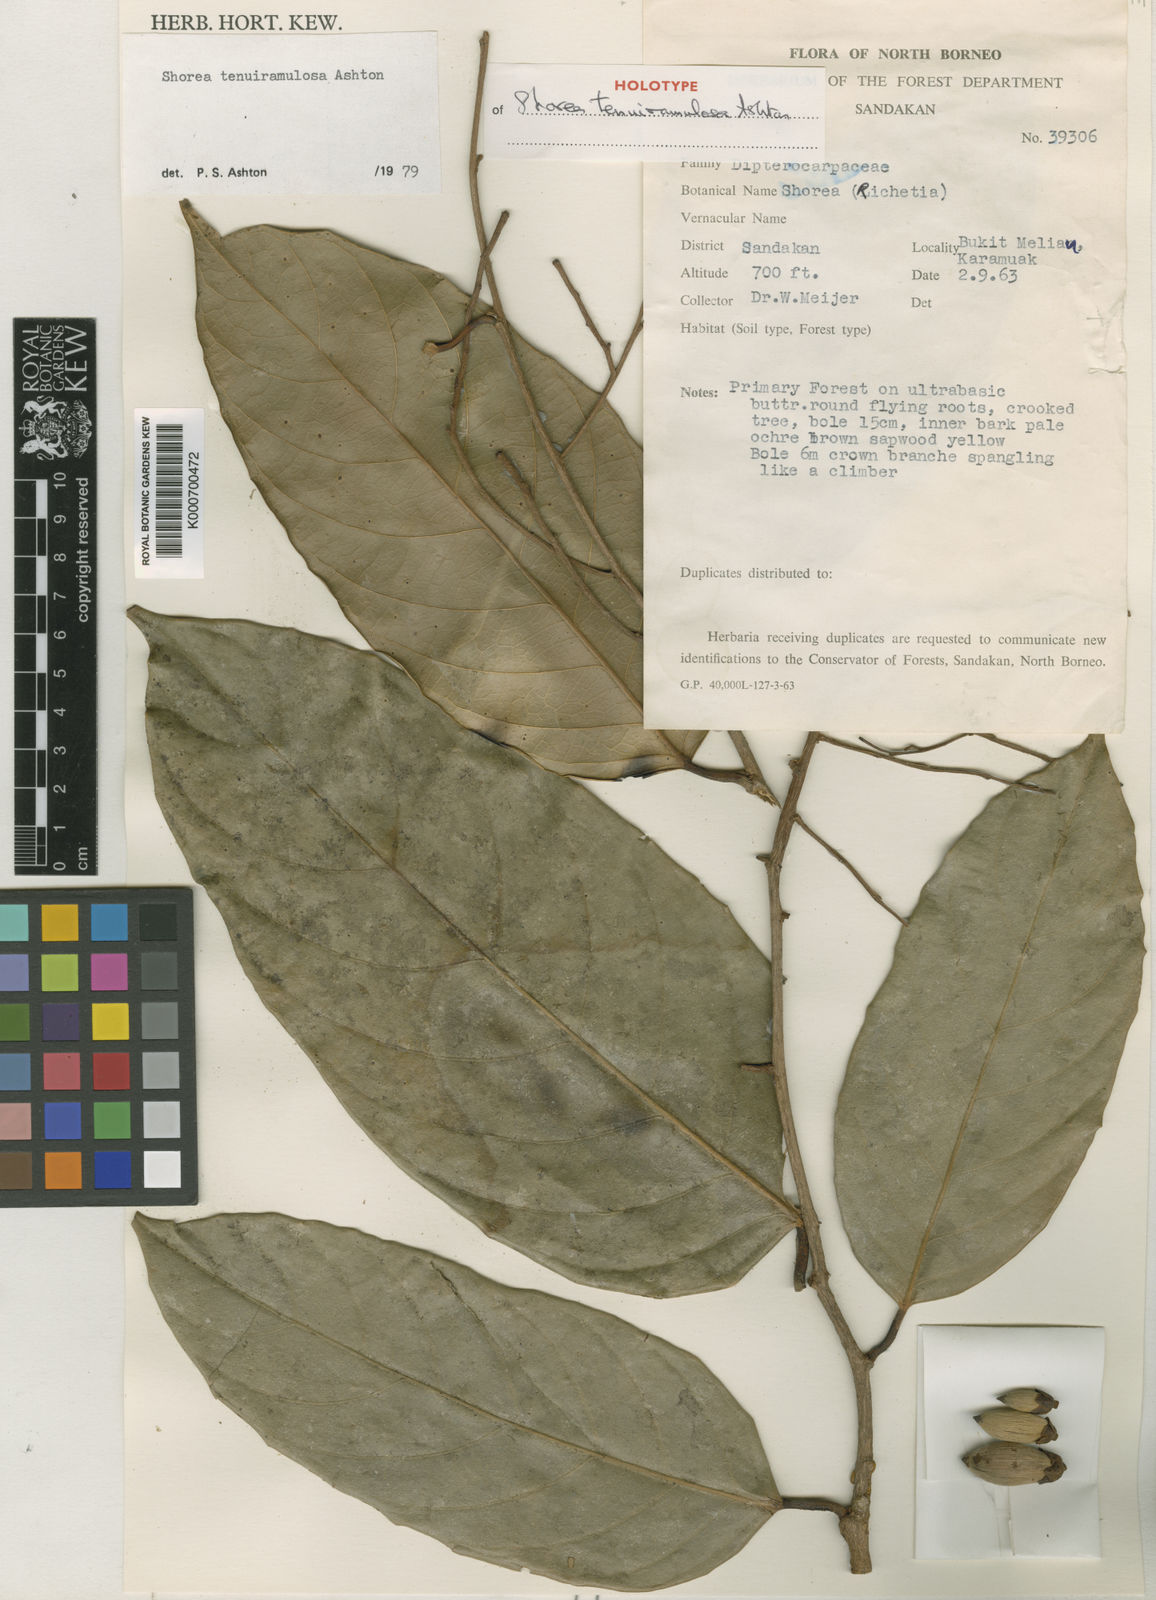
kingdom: Plantae
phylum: Tracheophyta
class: Magnoliopsida
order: Malvales
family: Dipterocarpaceae
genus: Shorea
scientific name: Shorea tenuiramulosa
